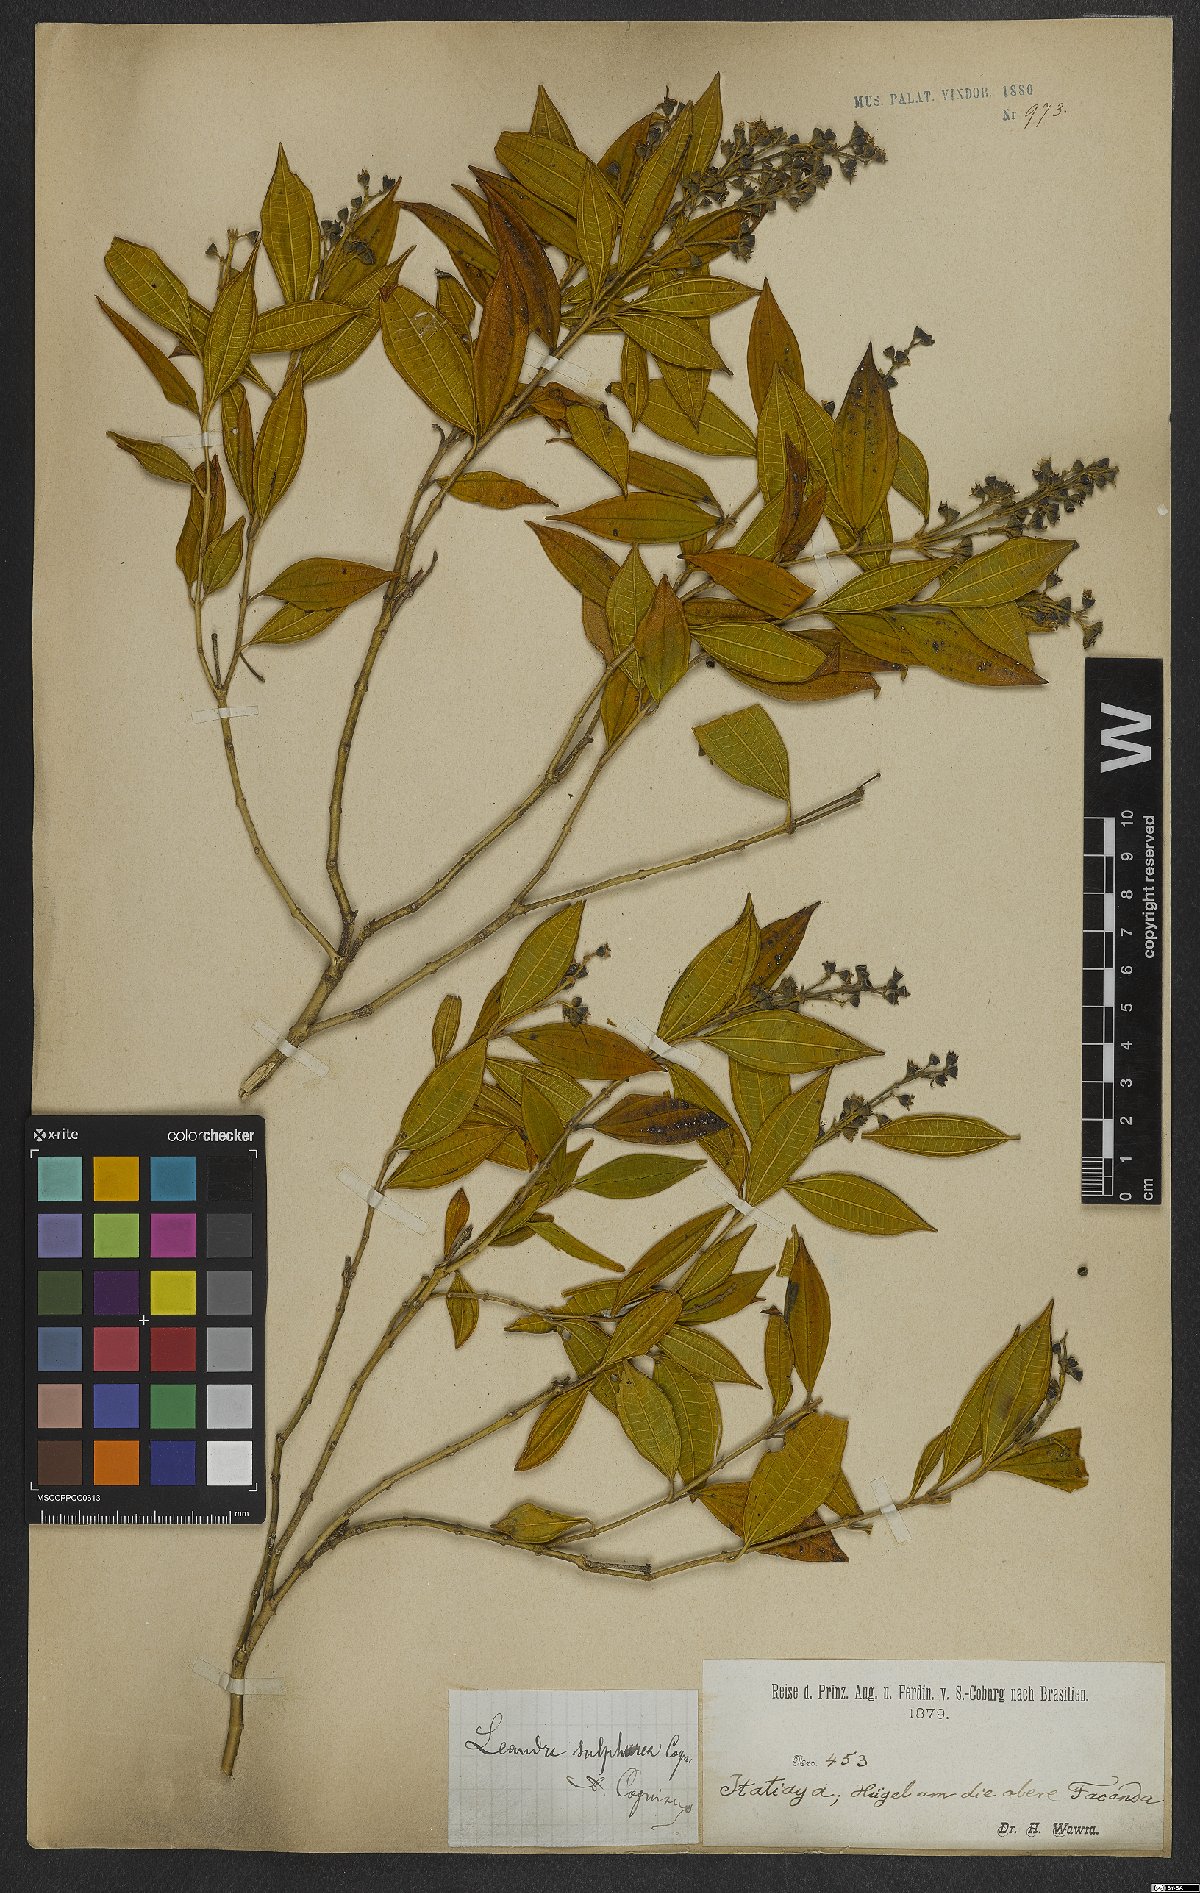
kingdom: Plantae
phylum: Tracheophyta
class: Magnoliopsida
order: Myrtales
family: Melastomataceae
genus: Miconia
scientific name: Miconia sulfurea
